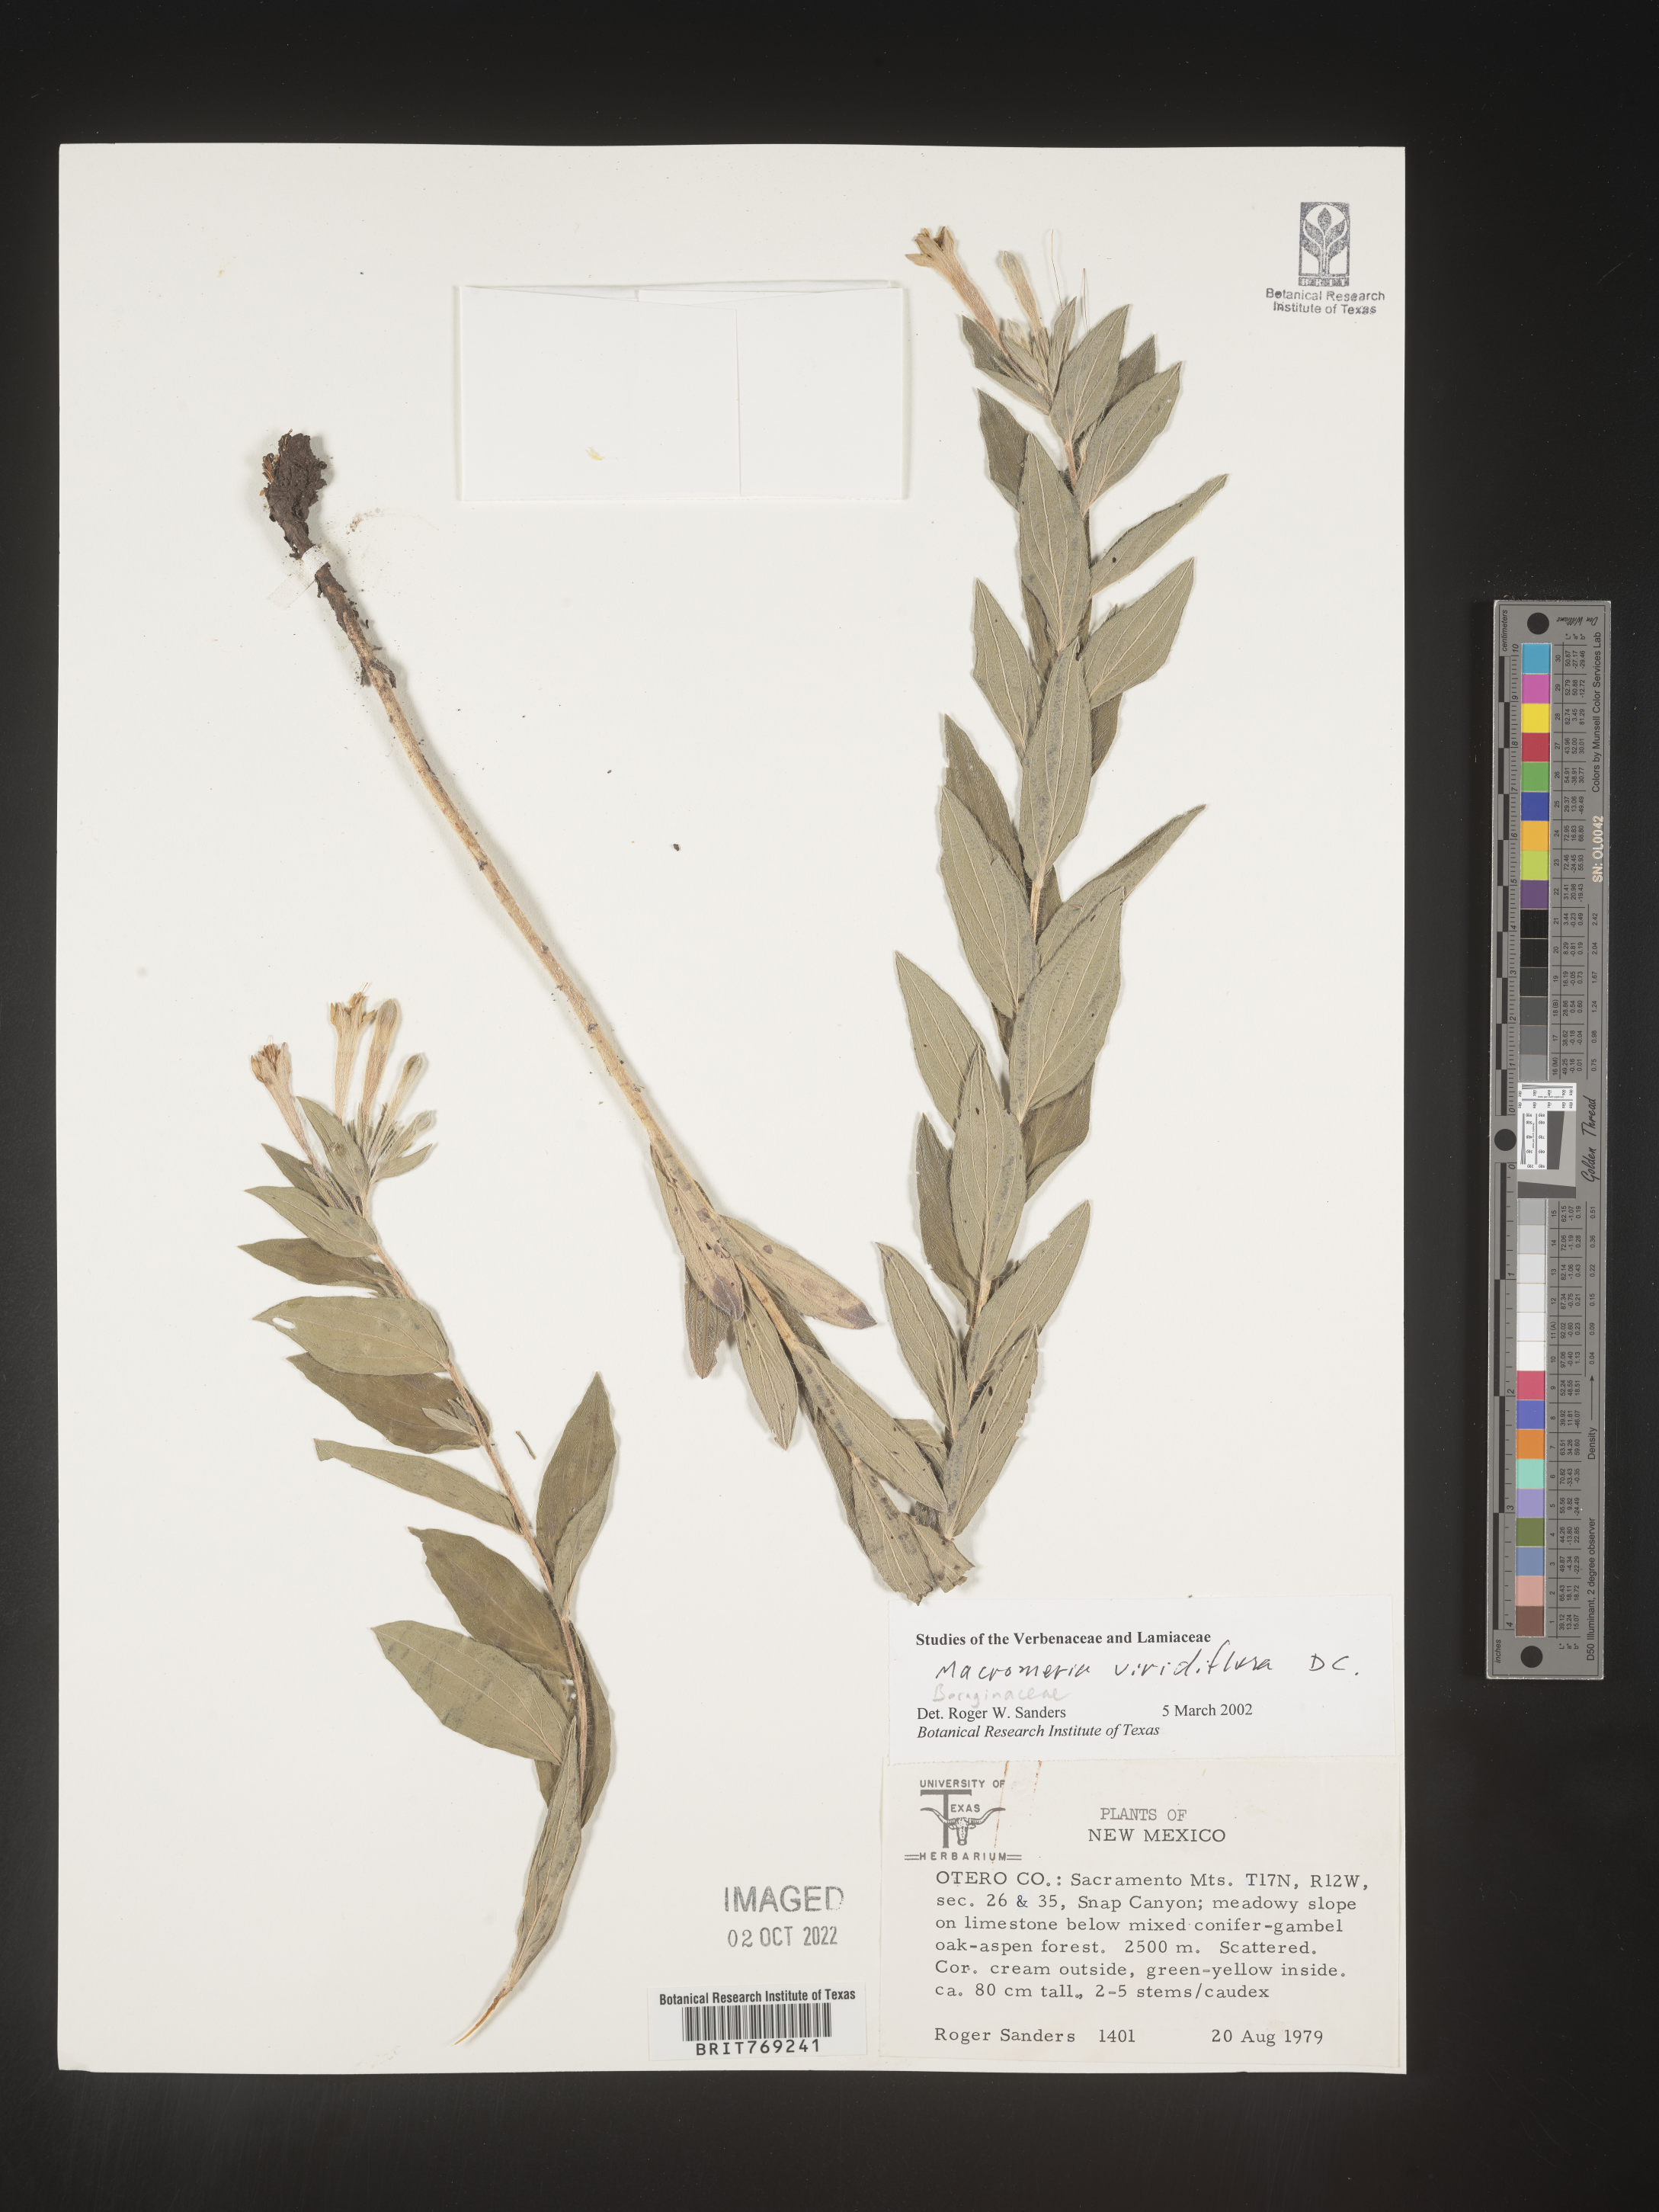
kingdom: Animalia
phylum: Arthropoda
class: Insecta
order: Hymenoptera
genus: Macromeria
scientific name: Macromeria
